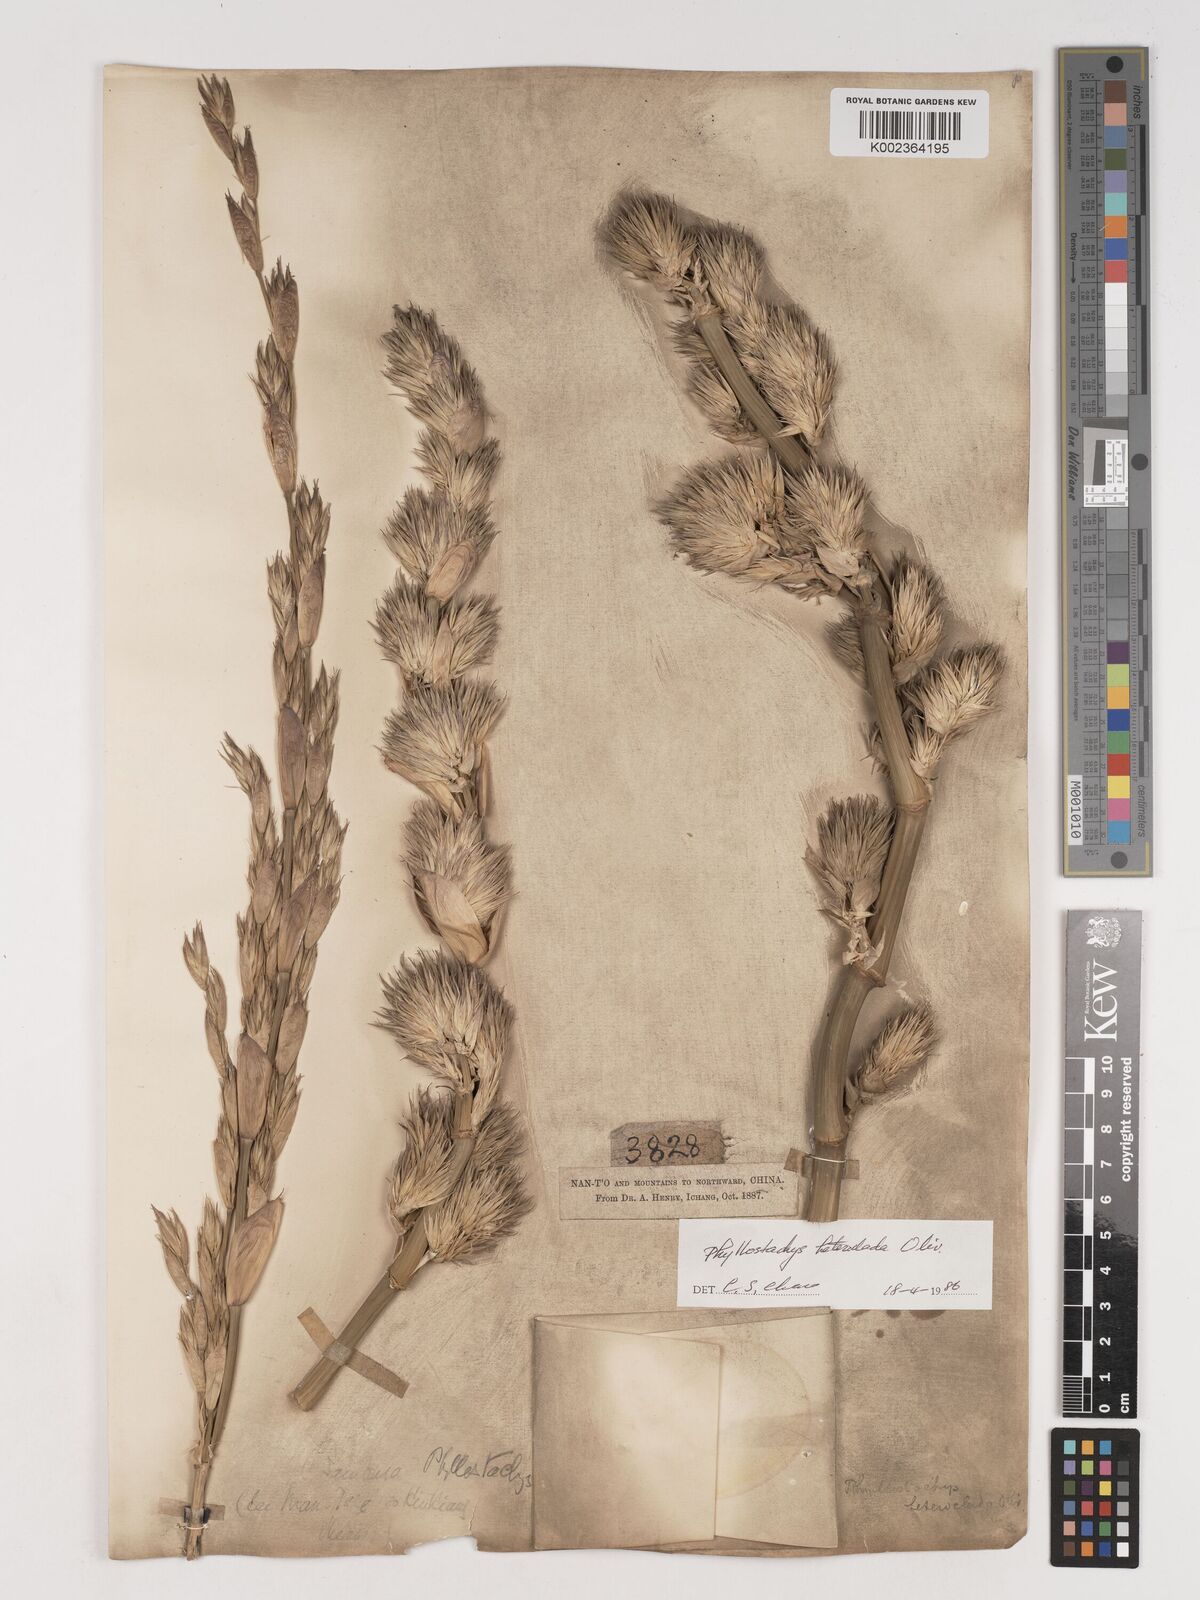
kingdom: Plantae
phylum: Tracheophyta
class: Liliopsida
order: Poales
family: Poaceae
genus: Phyllostachys
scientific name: Phyllostachys heteroclada
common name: Fishscale bamboo
